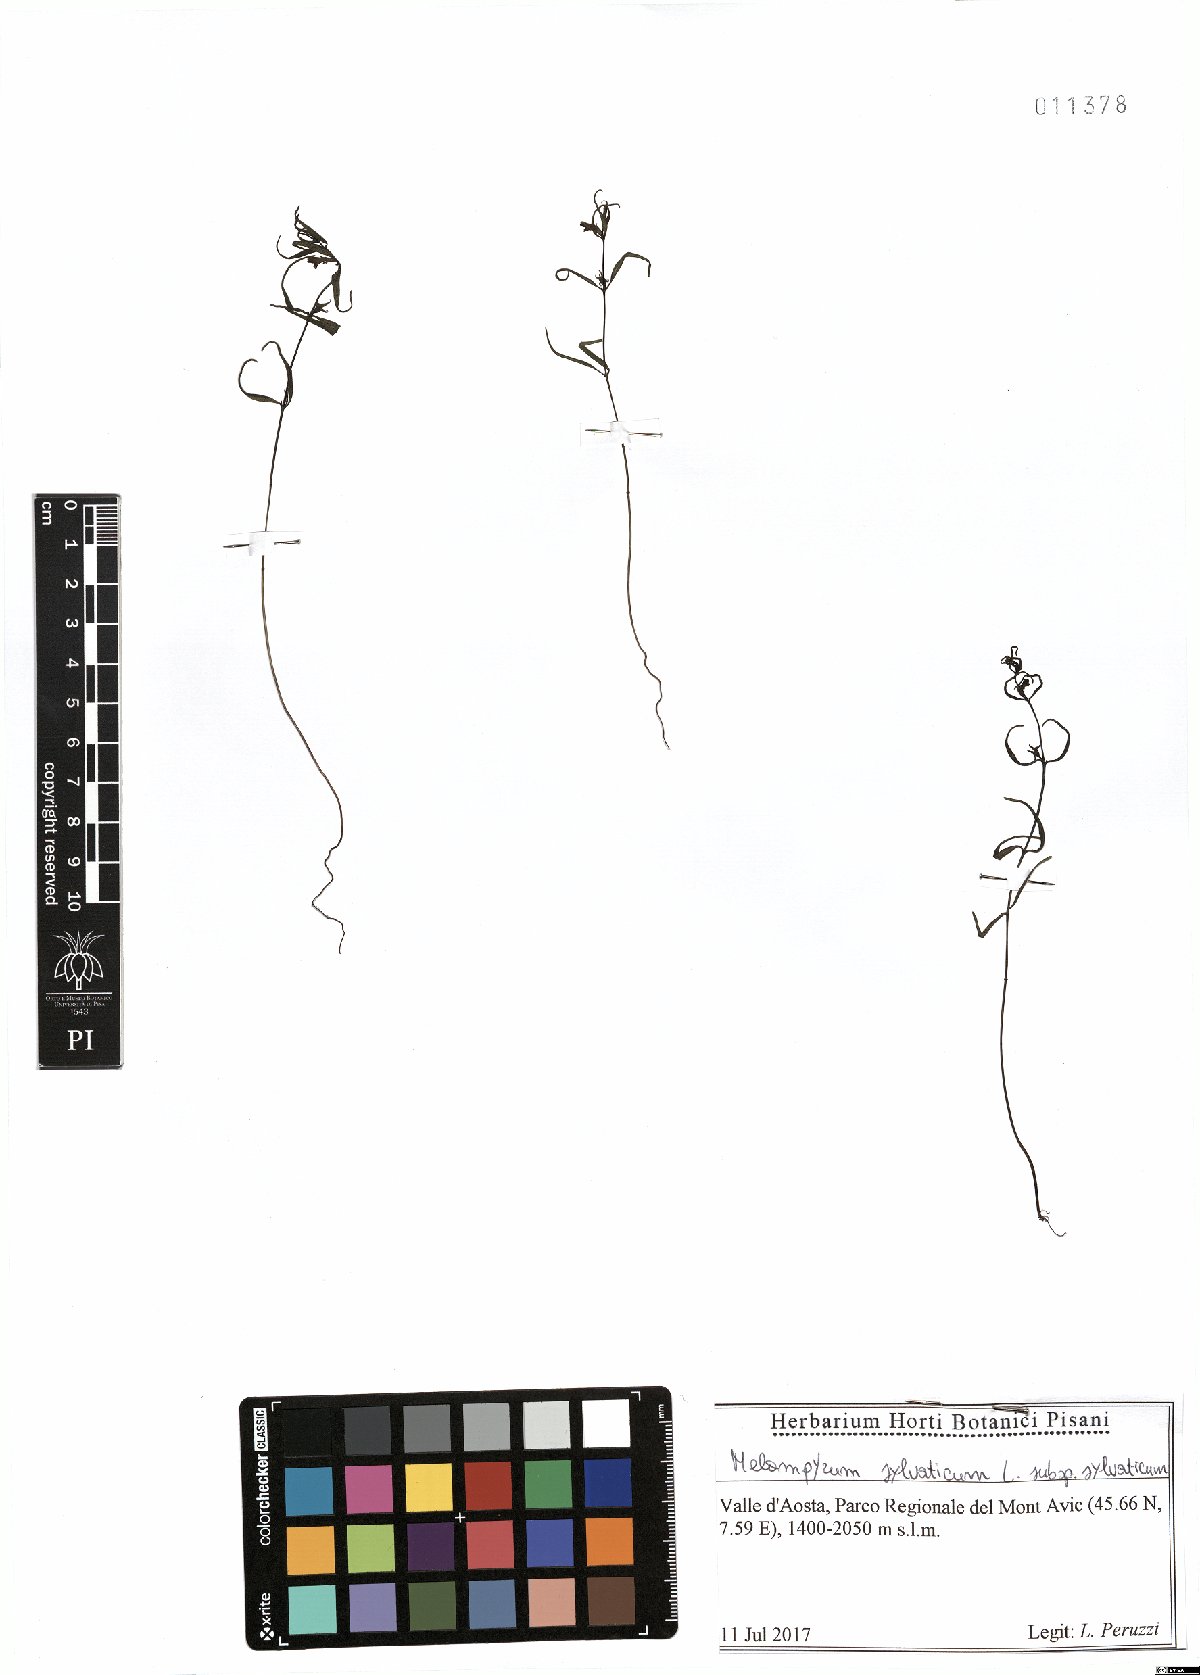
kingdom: Plantae
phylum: Tracheophyta
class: Magnoliopsida
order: Lamiales
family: Orobanchaceae
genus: Melampyrum
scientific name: Melampyrum sylvaticum
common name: Small cow-wheat
